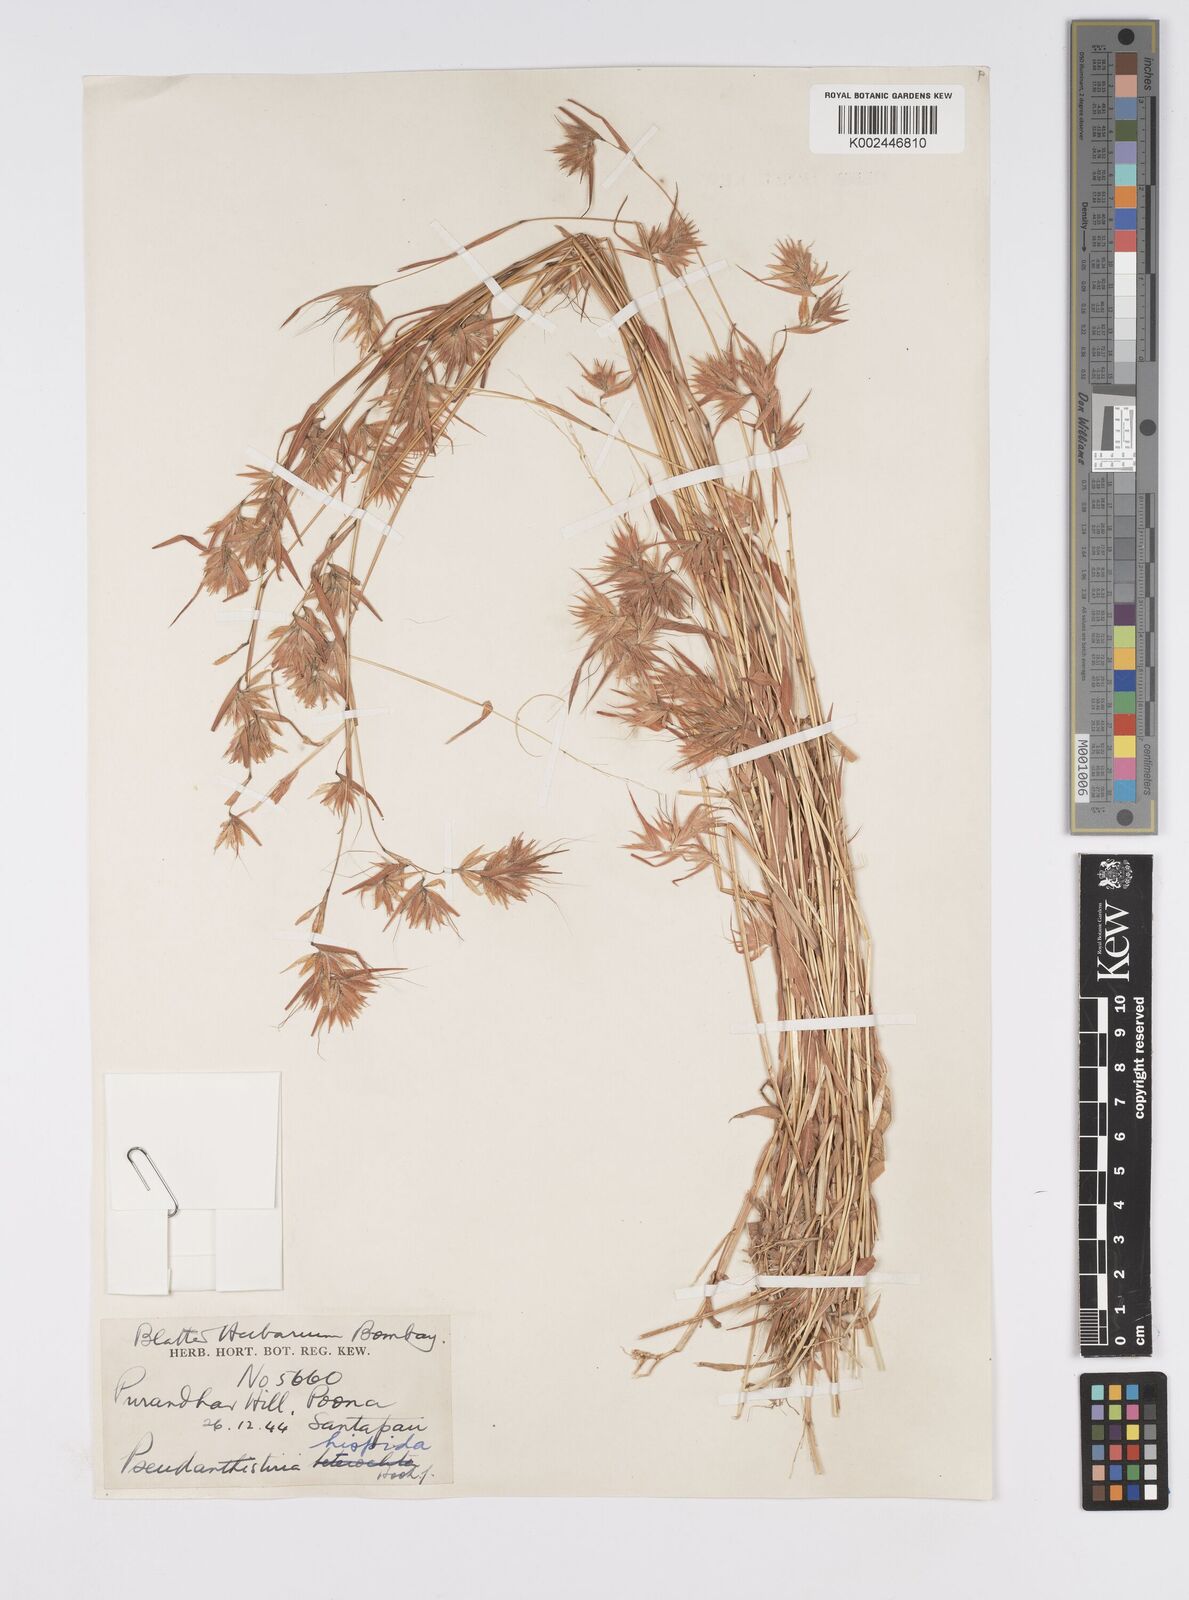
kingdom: Plantae
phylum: Tracheophyta
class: Liliopsida
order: Poales
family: Poaceae
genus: Pseudanthistiria
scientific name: Pseudanthistiria heteroclita
